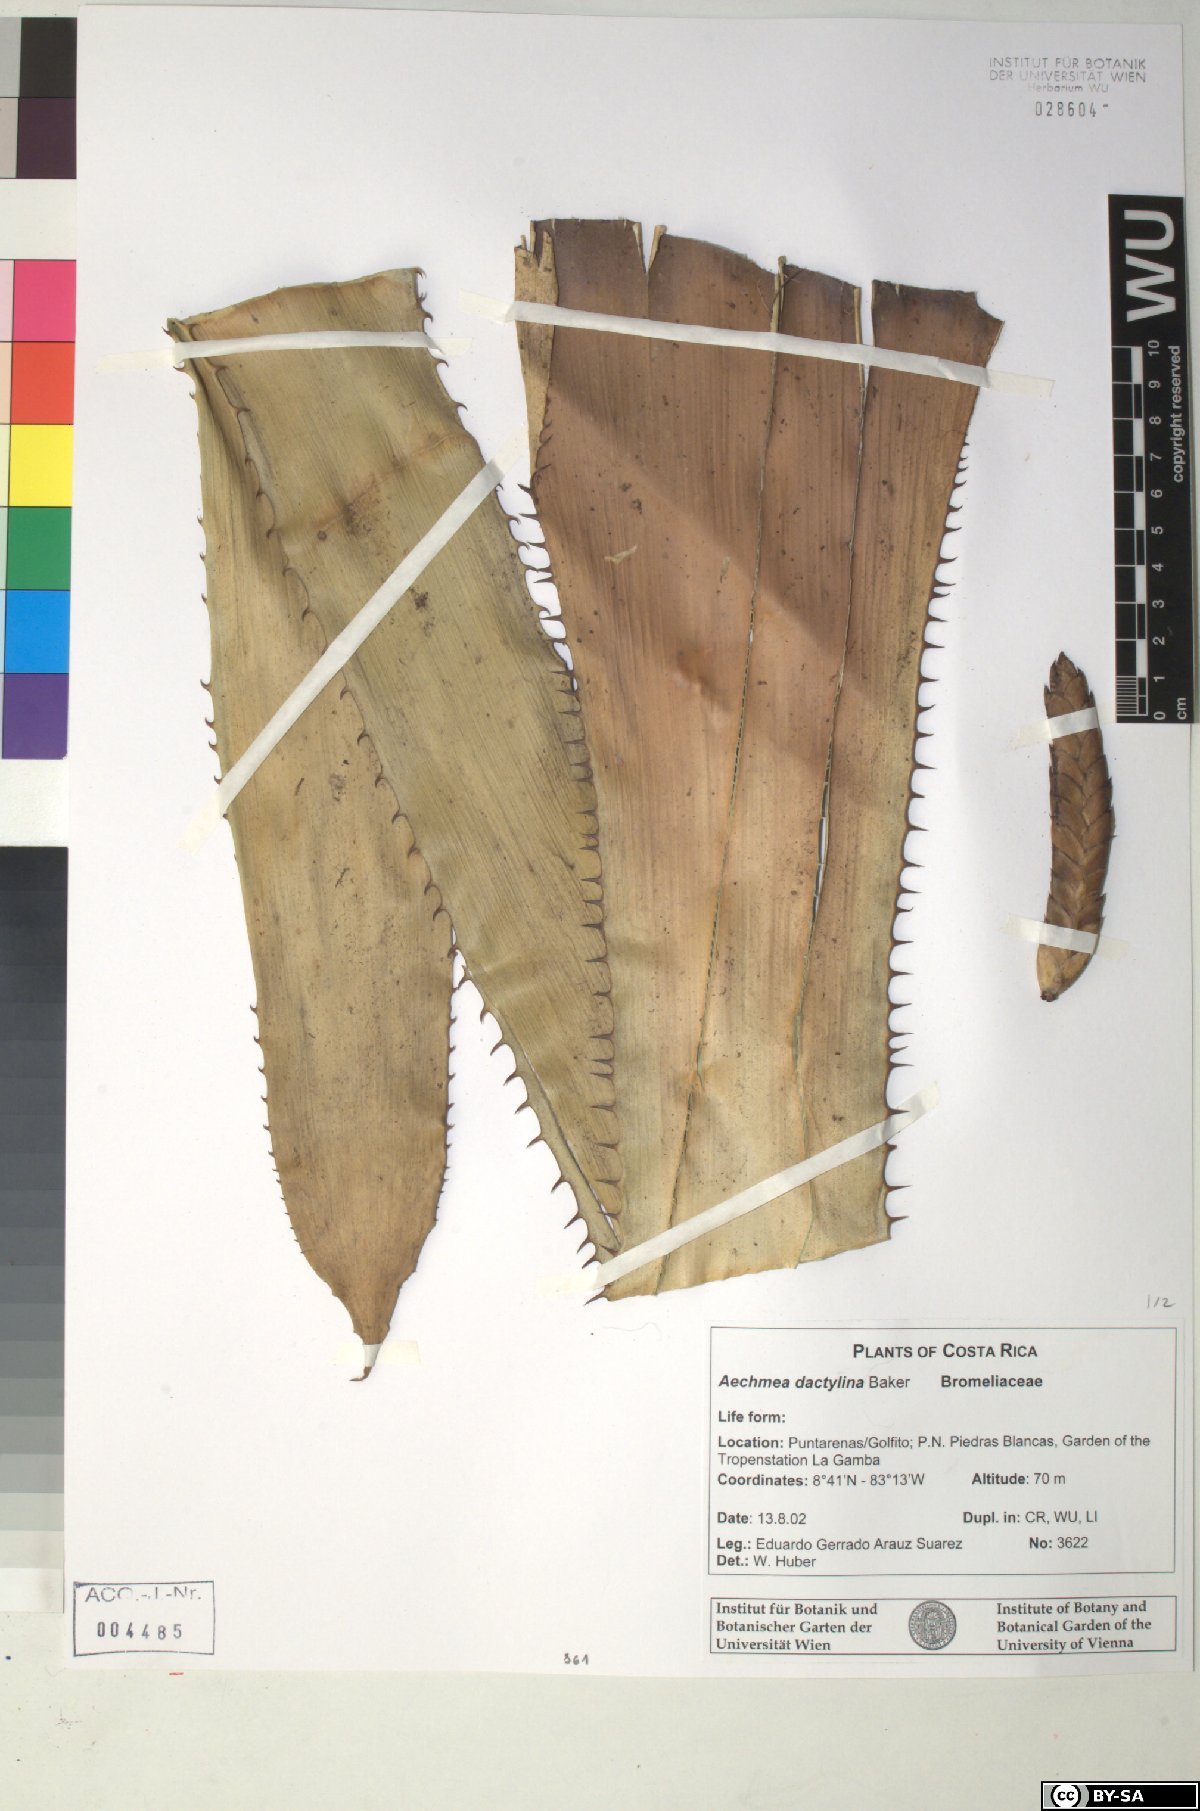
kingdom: Plantae
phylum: Tracheophyta
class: Liliopsida
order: Poales
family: Bromeliaceae
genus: Aechmea
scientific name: Aechmea dactylina
